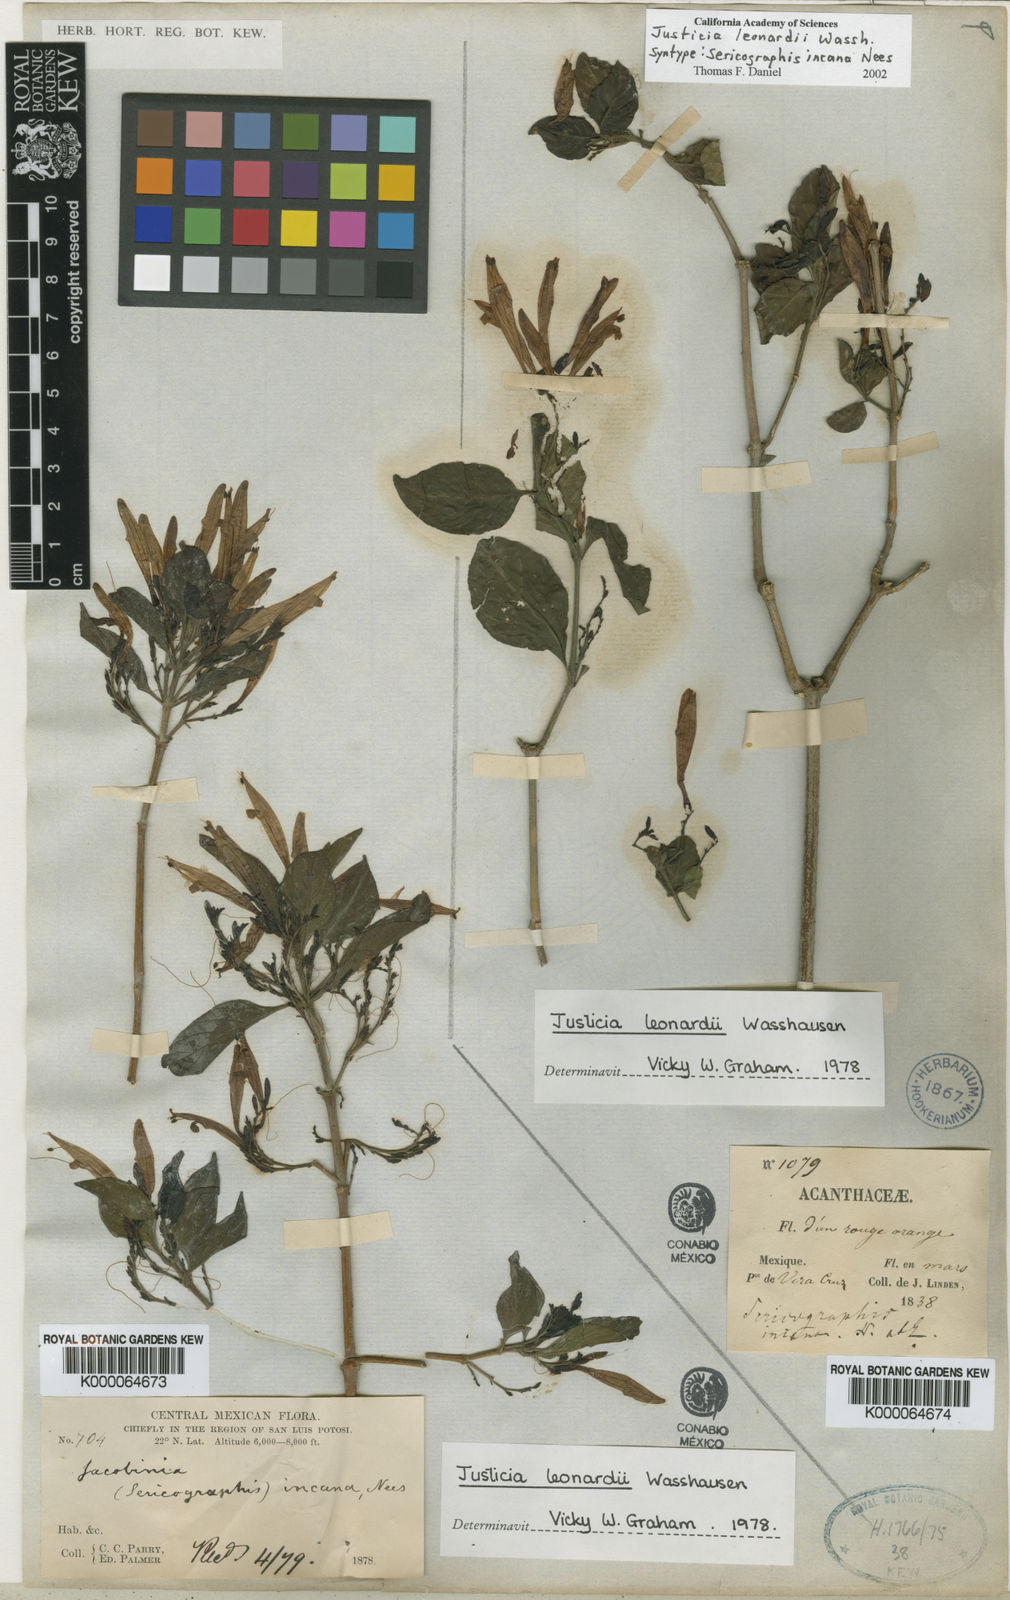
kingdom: Plantae
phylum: Tracheophyta
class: Magnoliopsida
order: Lamiales
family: Acanthaceae
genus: Justicia
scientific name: Justicia leonardii
